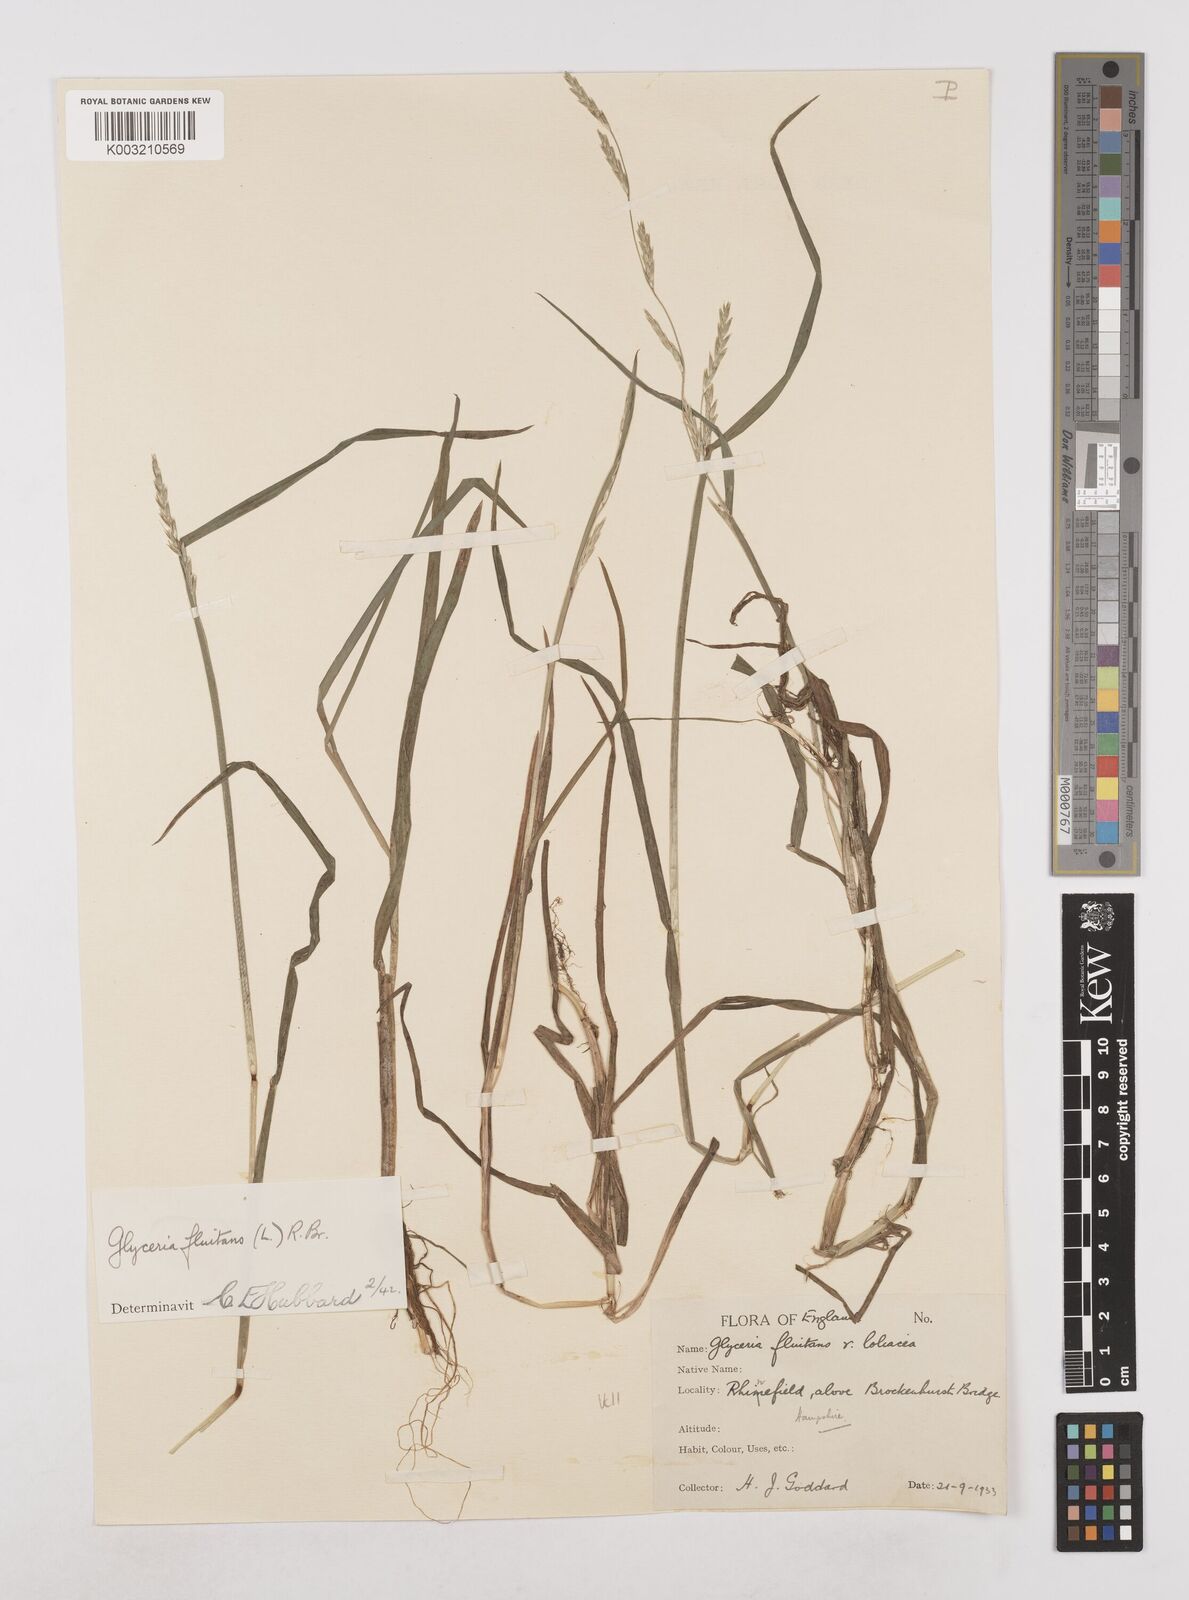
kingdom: Plantae
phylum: Tracheophyta
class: Liliopsida
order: Poales
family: Poaceae
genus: Glyceria
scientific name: Glyceria fluitans
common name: Floating sweet-grass
